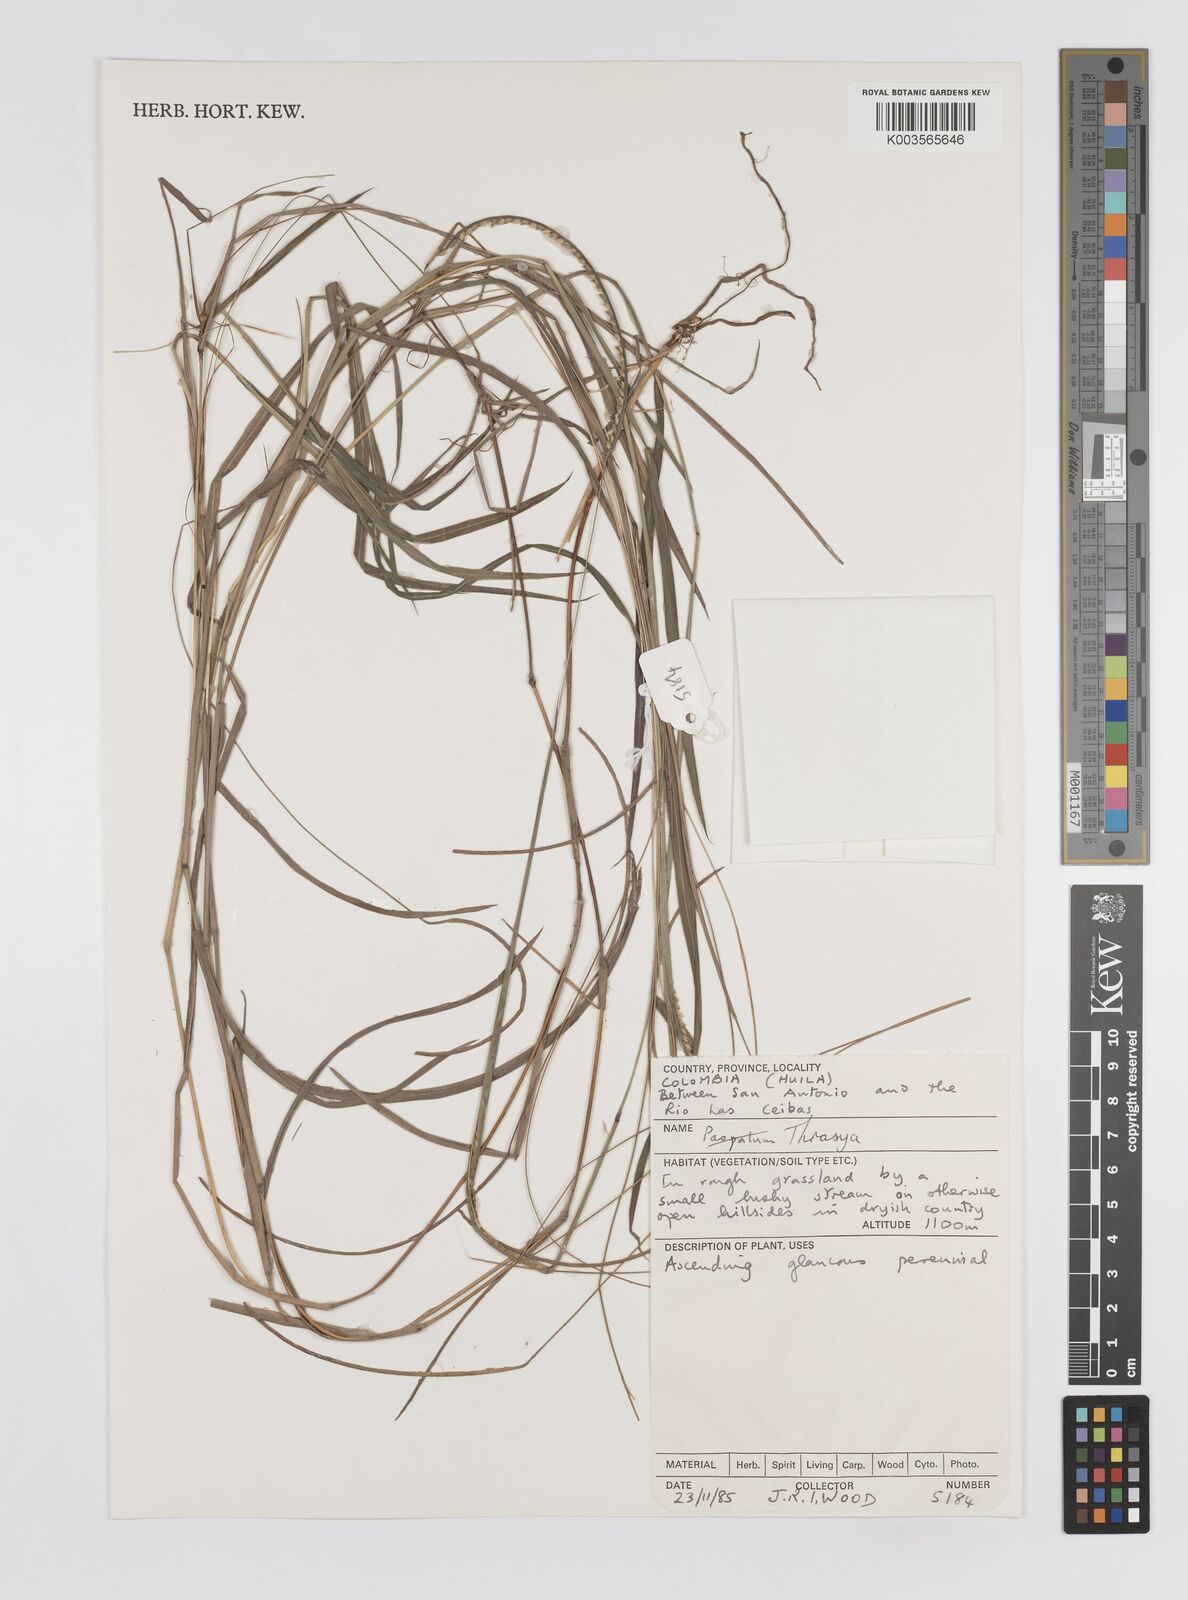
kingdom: Plantae
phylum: Tracheophyta
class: Liliopsida
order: Poales
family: Poaceae
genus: Paspalum
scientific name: Paspalum campylostachyum
